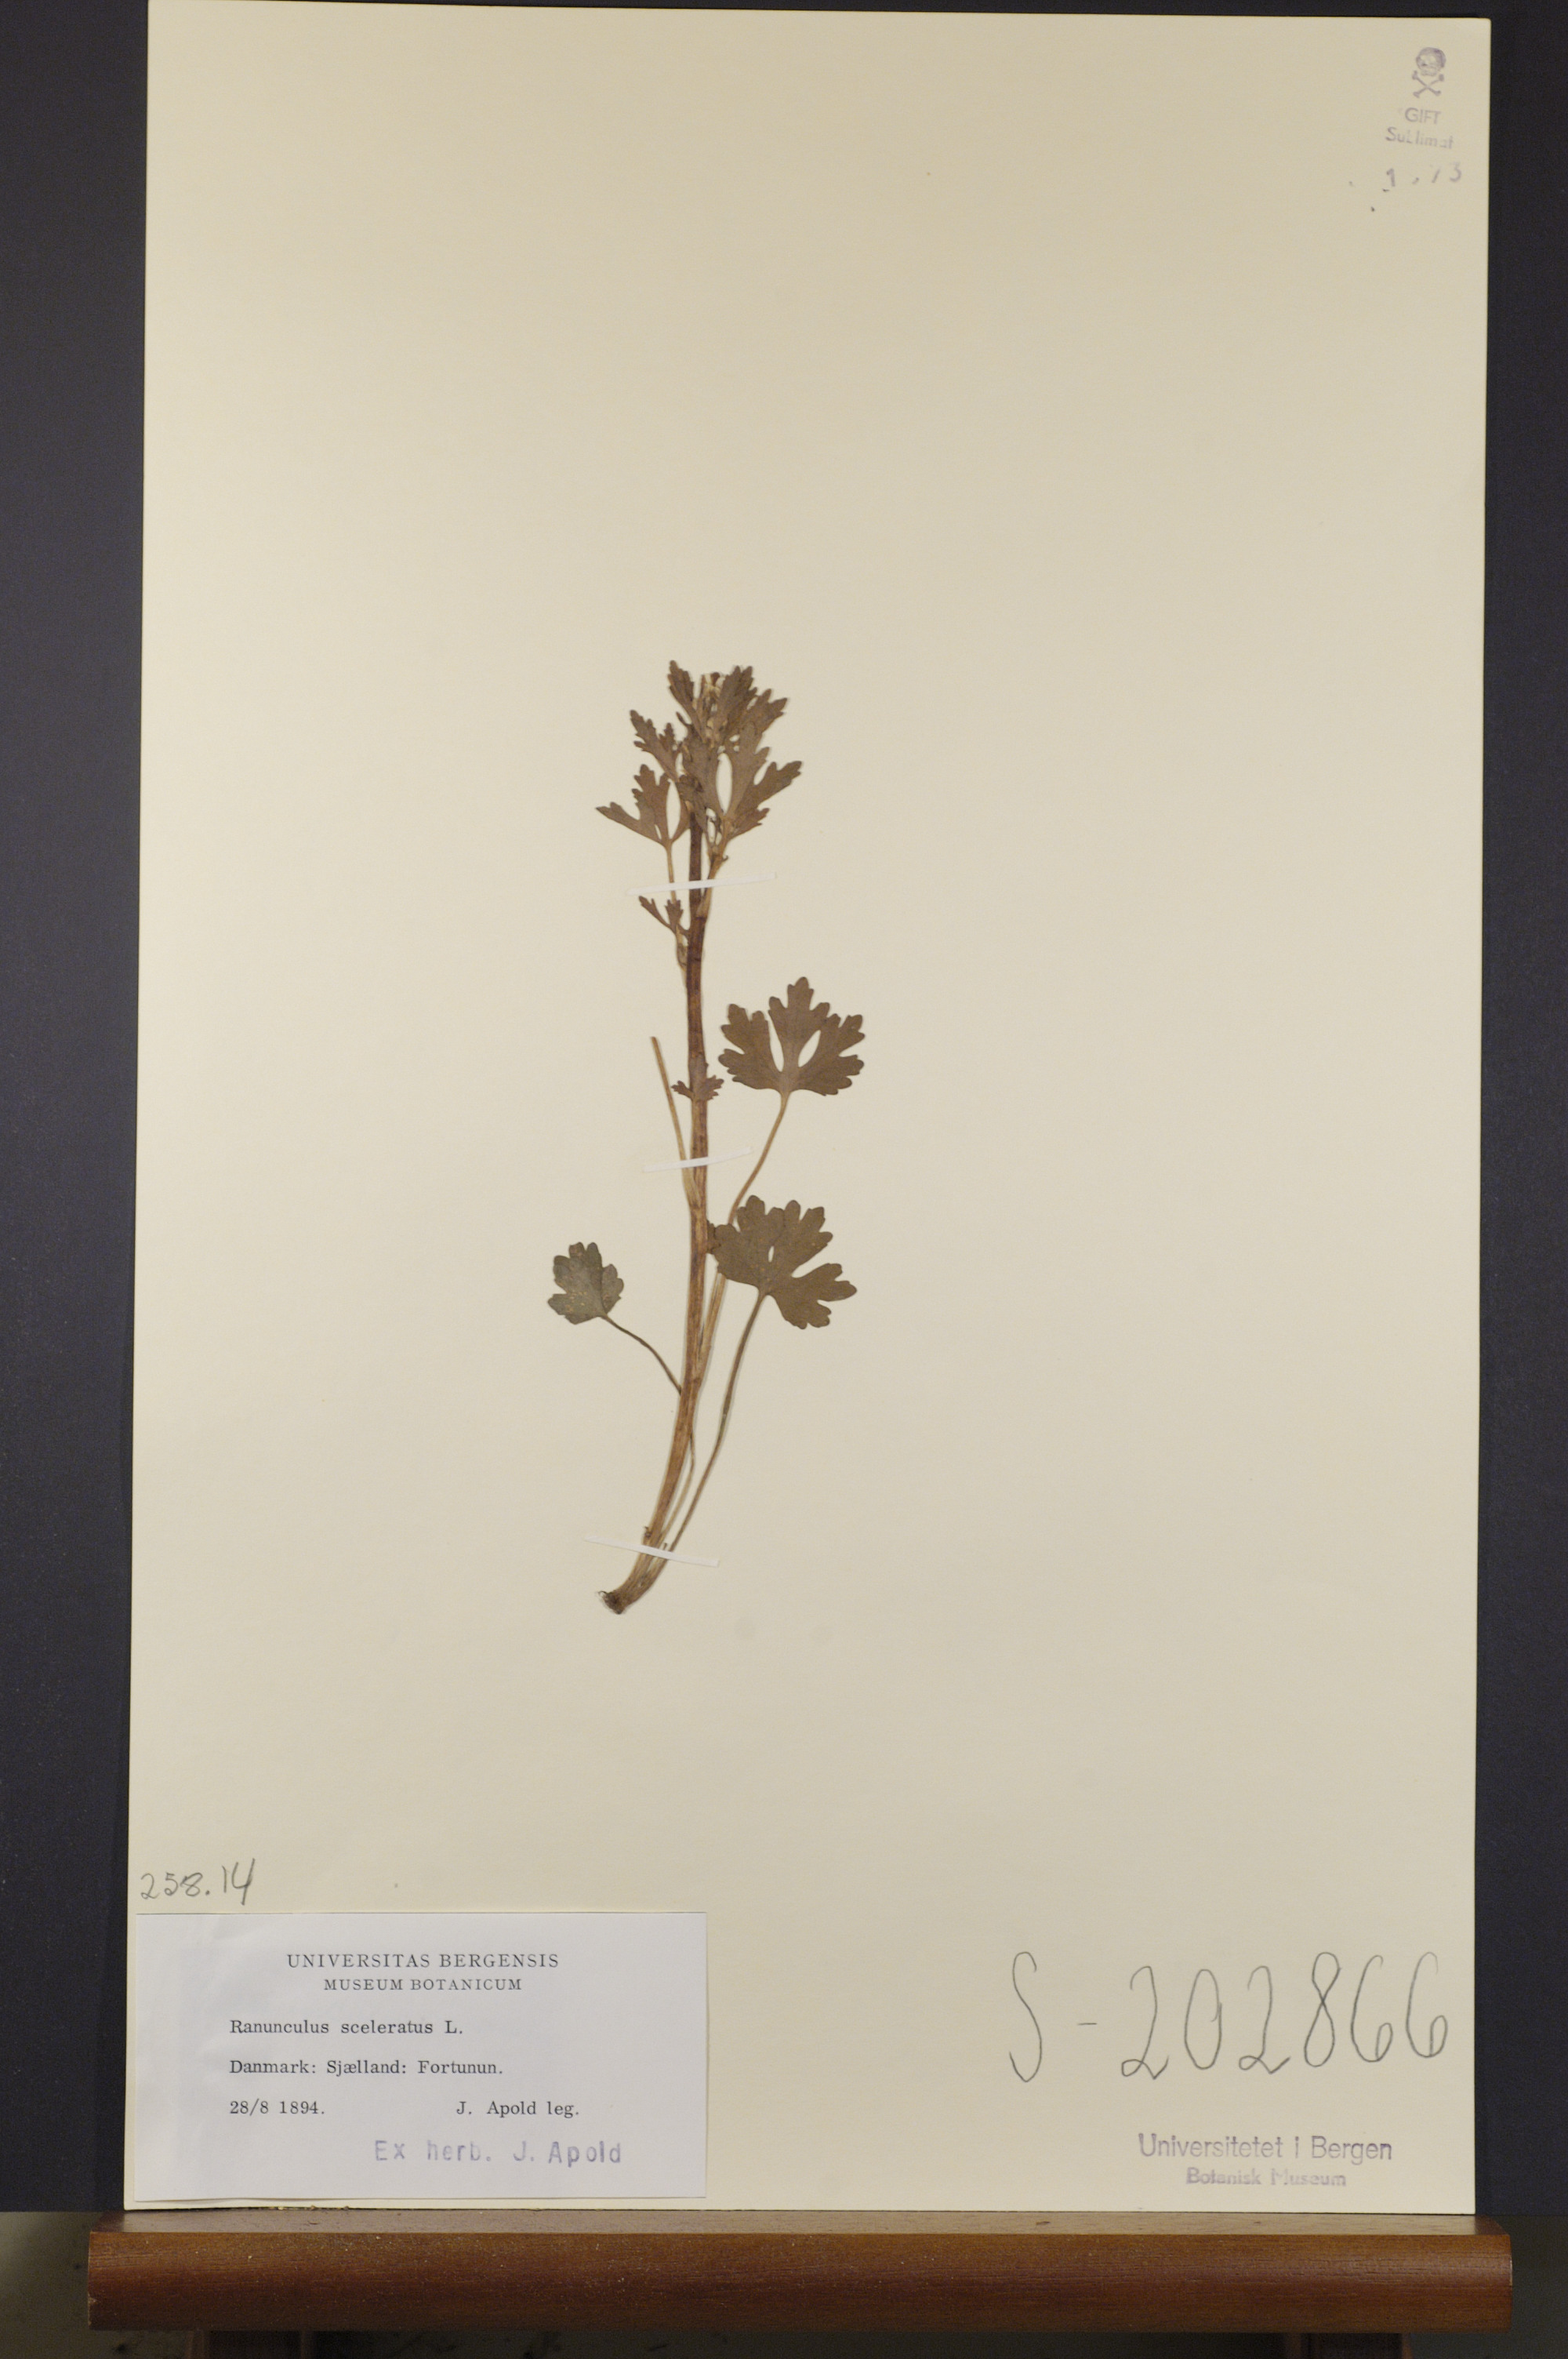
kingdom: Plantae
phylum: Tracheophyta
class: Magnoliopsida
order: Ranunculales
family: Ranunculaceae
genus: Ranunculus
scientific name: Ranunculus sceleratus
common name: Celery-leaved buttercup
